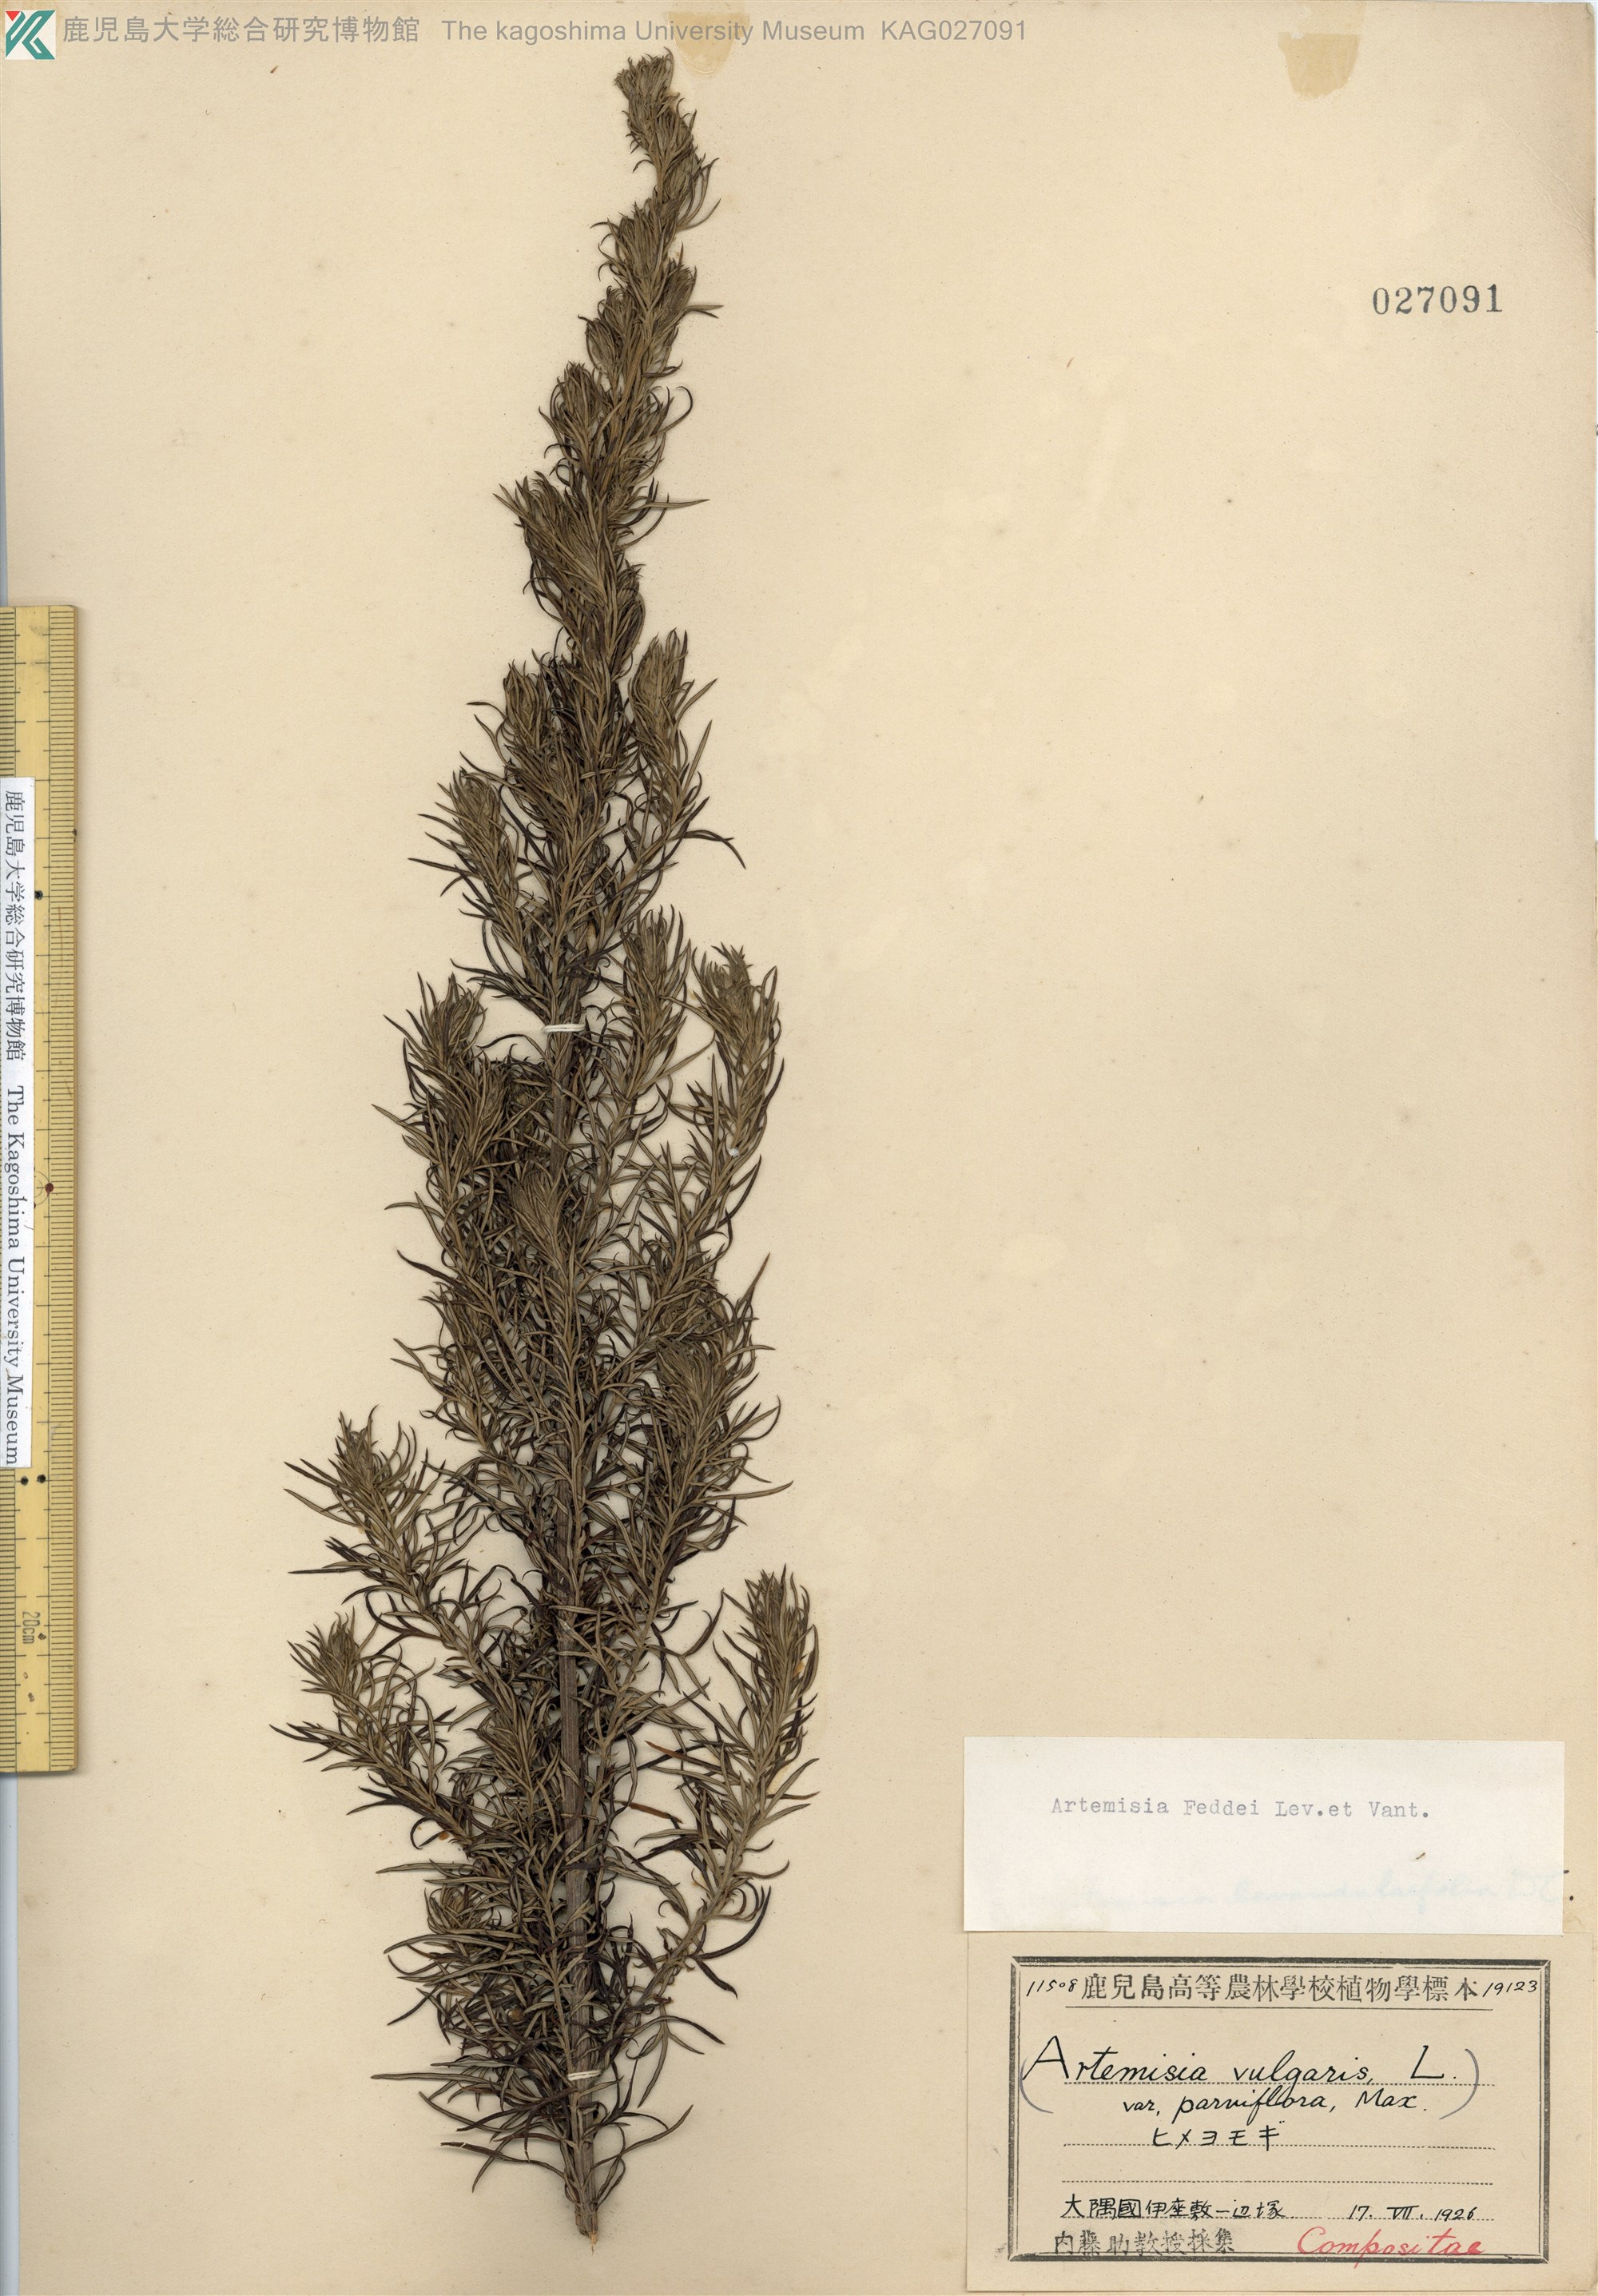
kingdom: Plantae
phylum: Tracheophyta
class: Magnoliopsida
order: Asterales
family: Asteraceae
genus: Artemisia
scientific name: Artemisia lancea
